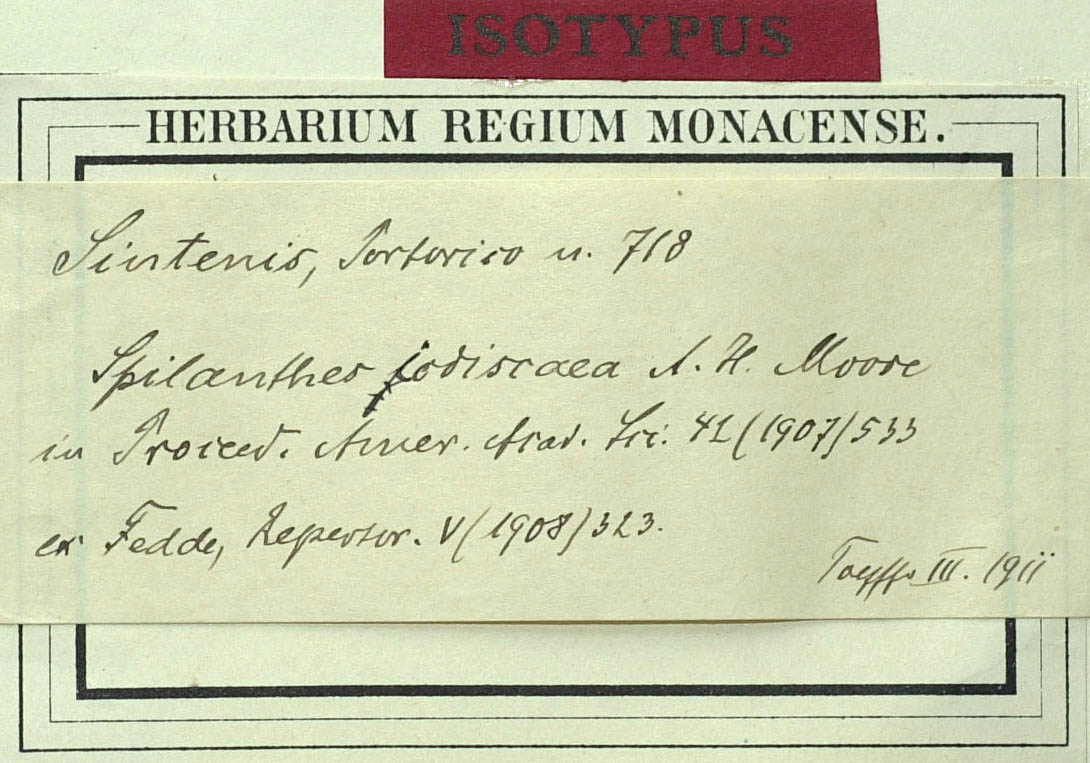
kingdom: Plantae
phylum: Tracheophyta
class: Magnoliopsida
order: Asterales
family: Asteraceae
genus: Acmella
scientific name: Acmella iodiscaea
